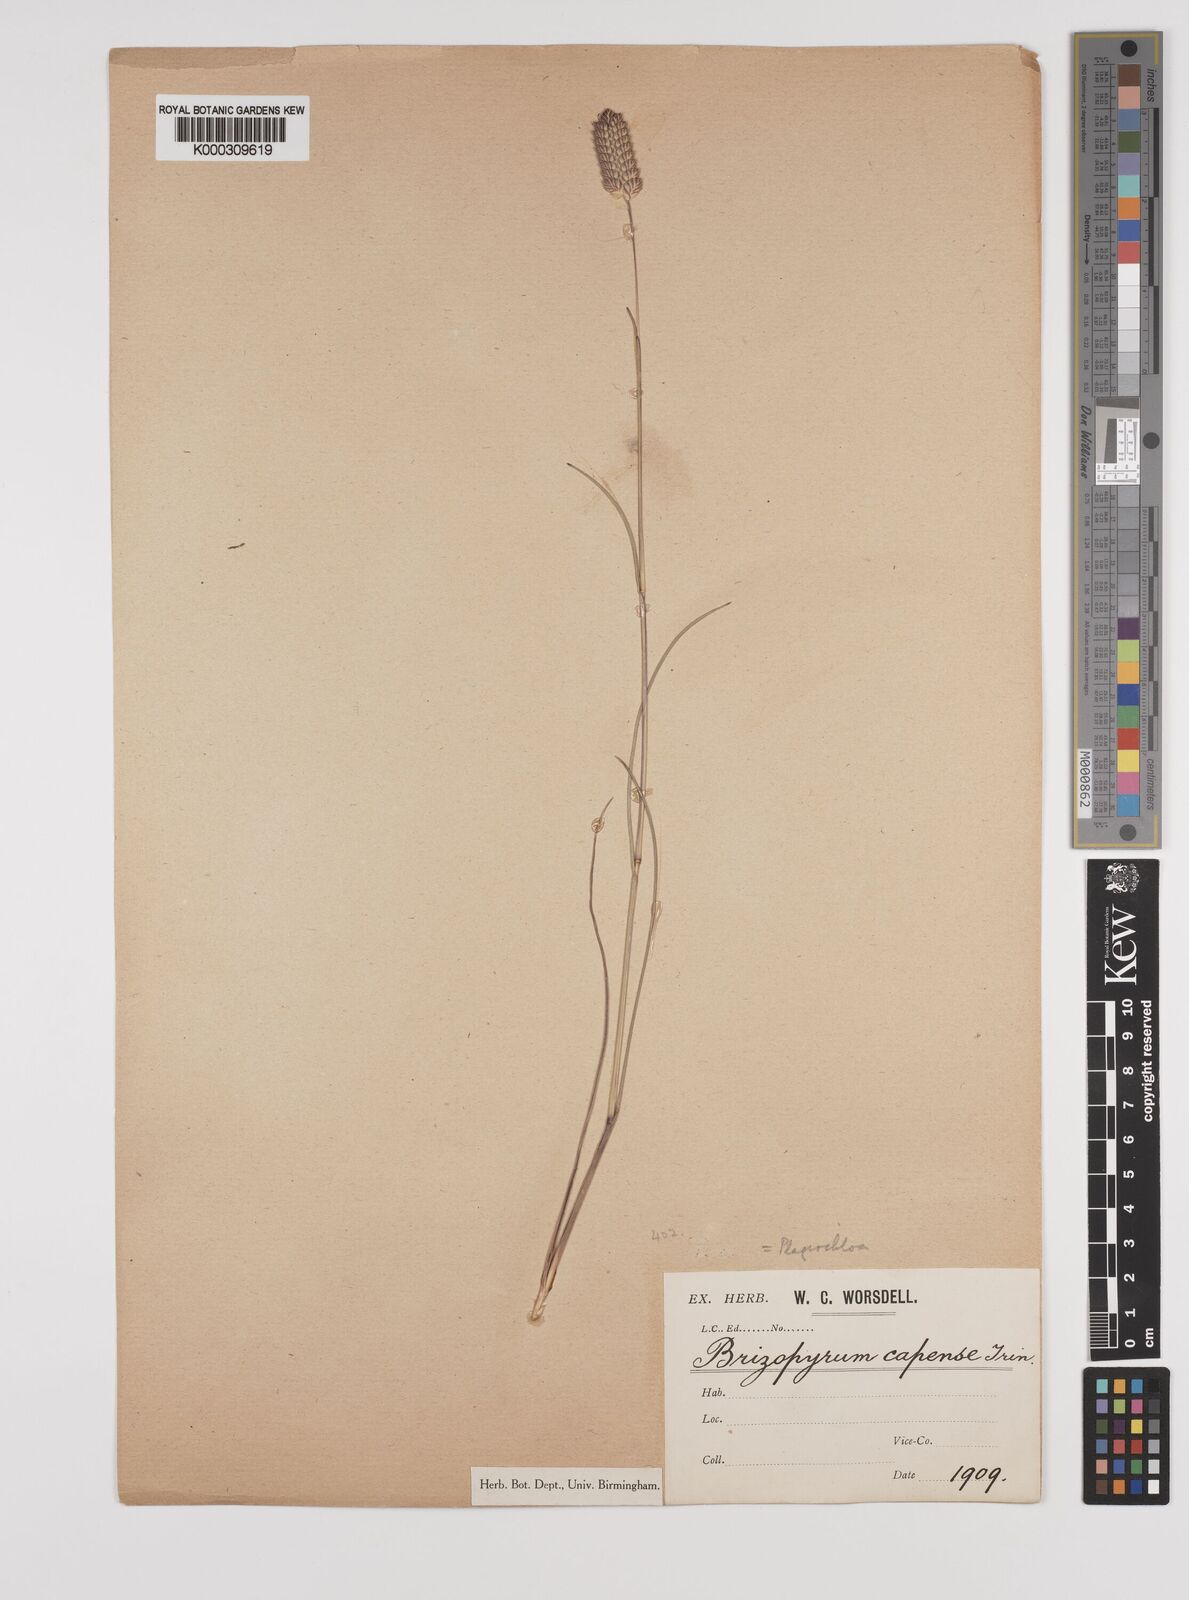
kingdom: Plantae
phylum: Tracheophyta
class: Liliopsida
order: Poales
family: Poaceae
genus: Tribolium
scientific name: Tribolium uniolae
